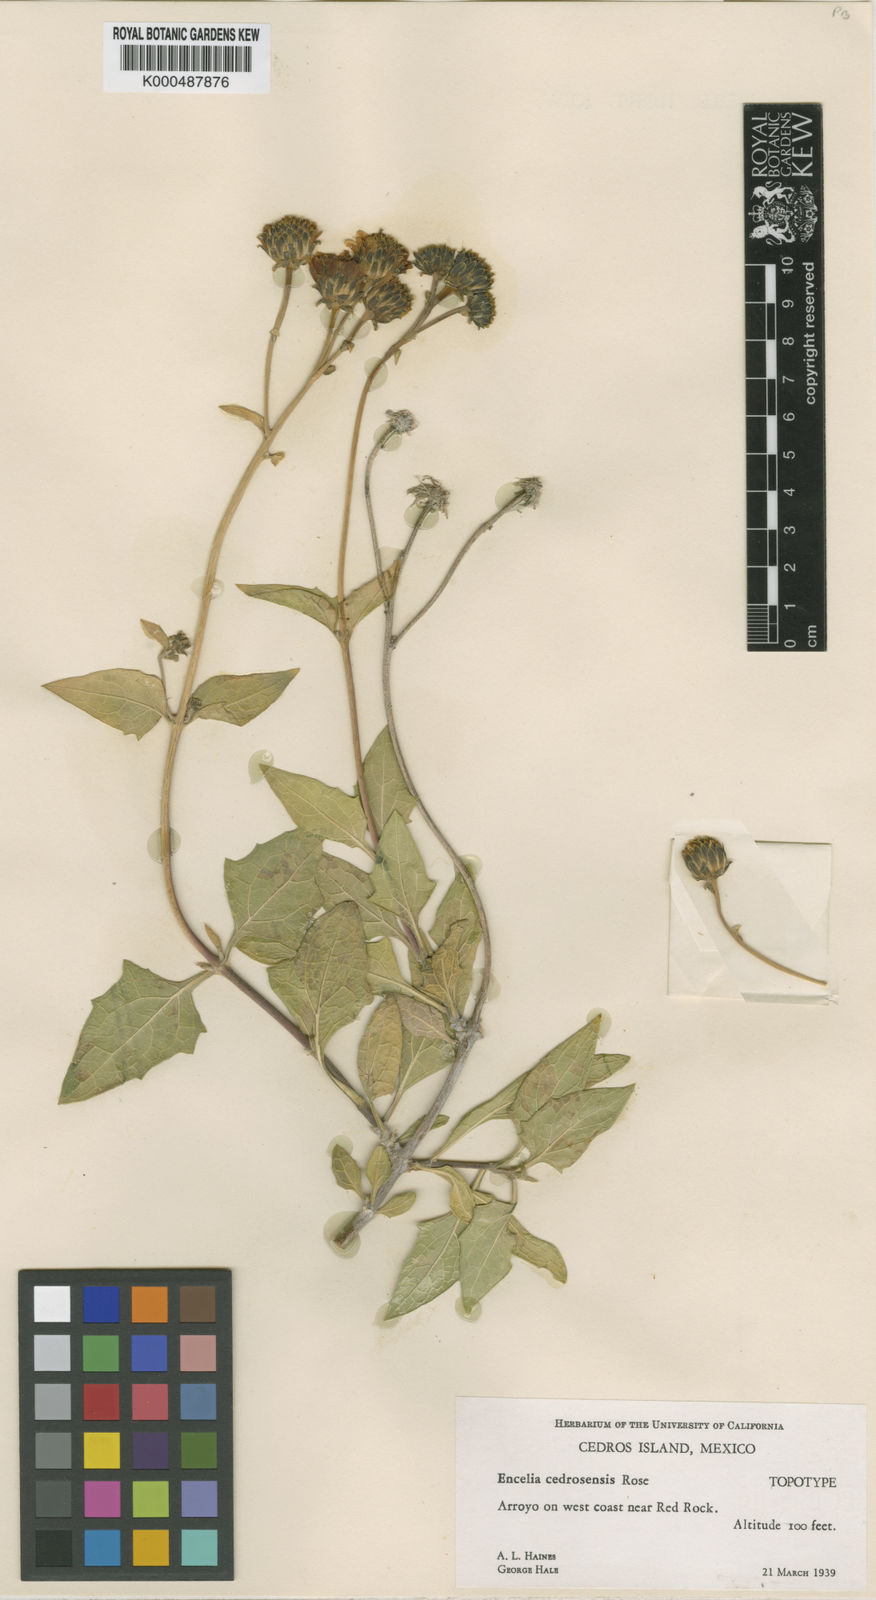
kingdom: Plantae
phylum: Tracheophyta
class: Magnoliopsida
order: Asterales
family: Asteraceae
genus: Verbesina
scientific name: Verbesina resinosa
